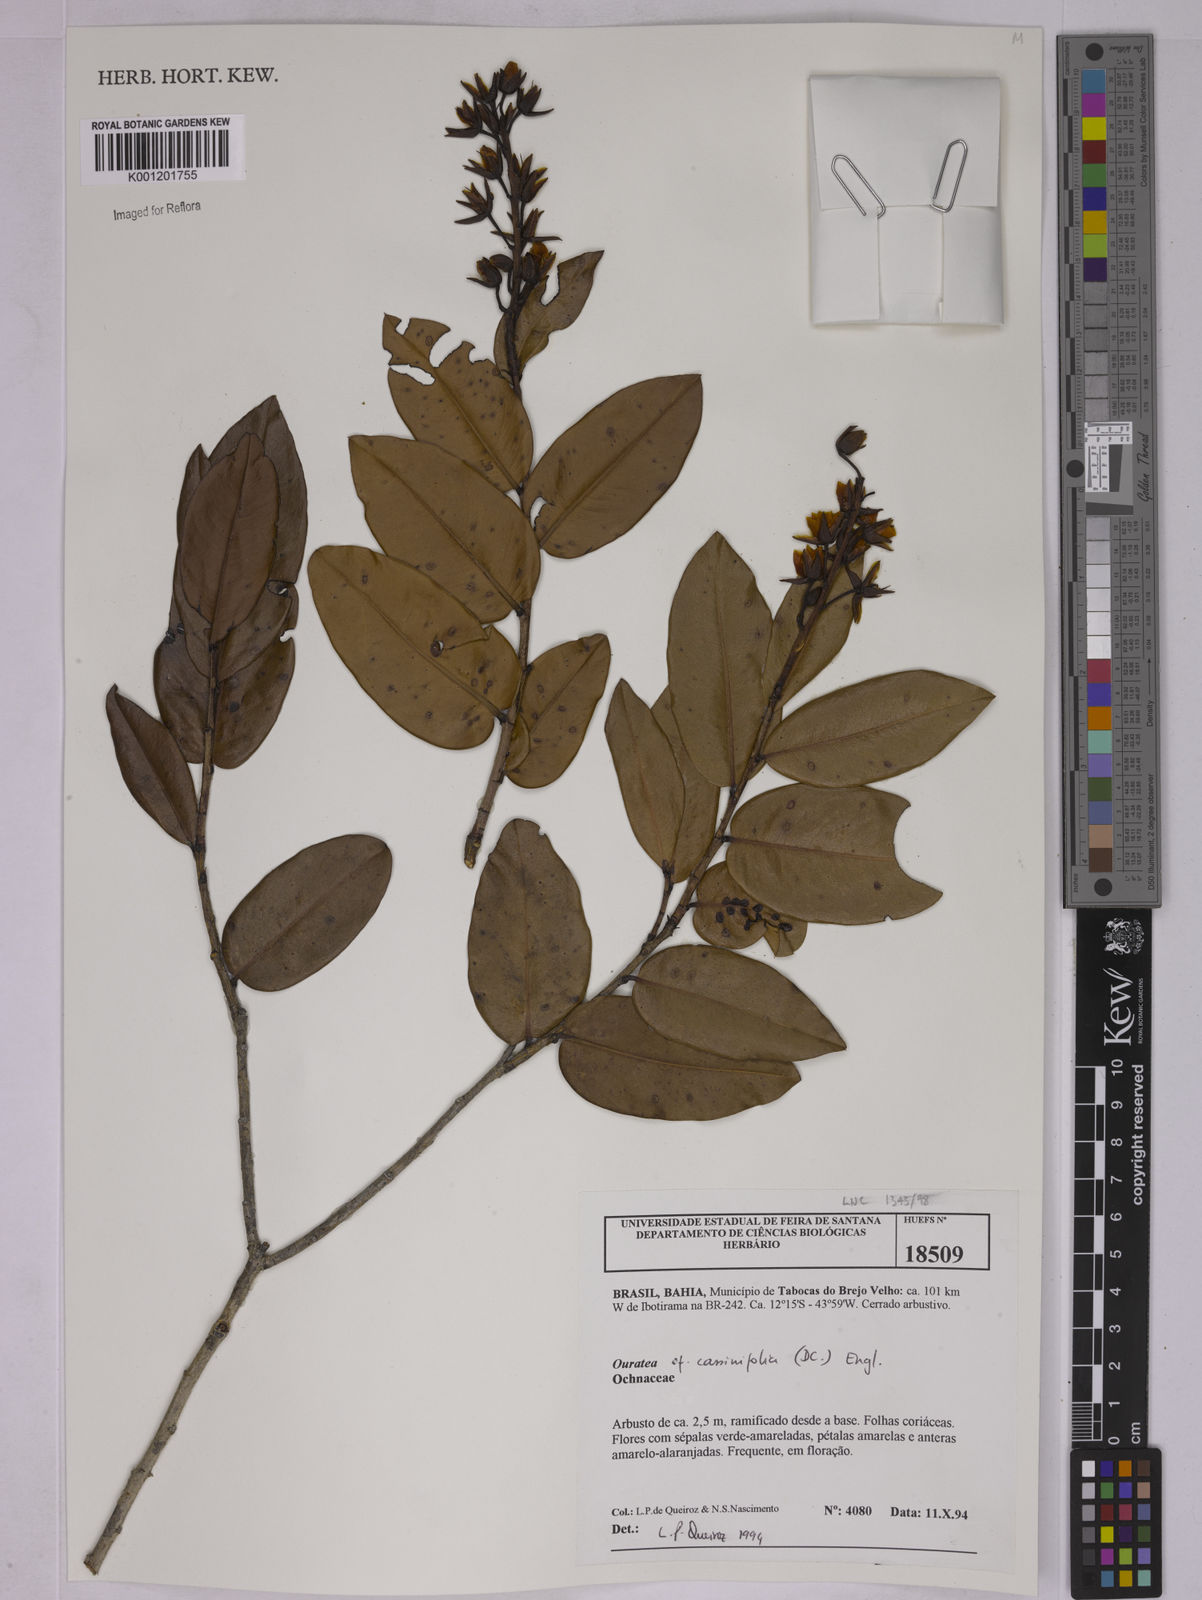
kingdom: Plantae
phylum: Tracheophyta
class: Magnoliopsida
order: Malpighiales
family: Ochnaceae
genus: Ouratea
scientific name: Ouratea
